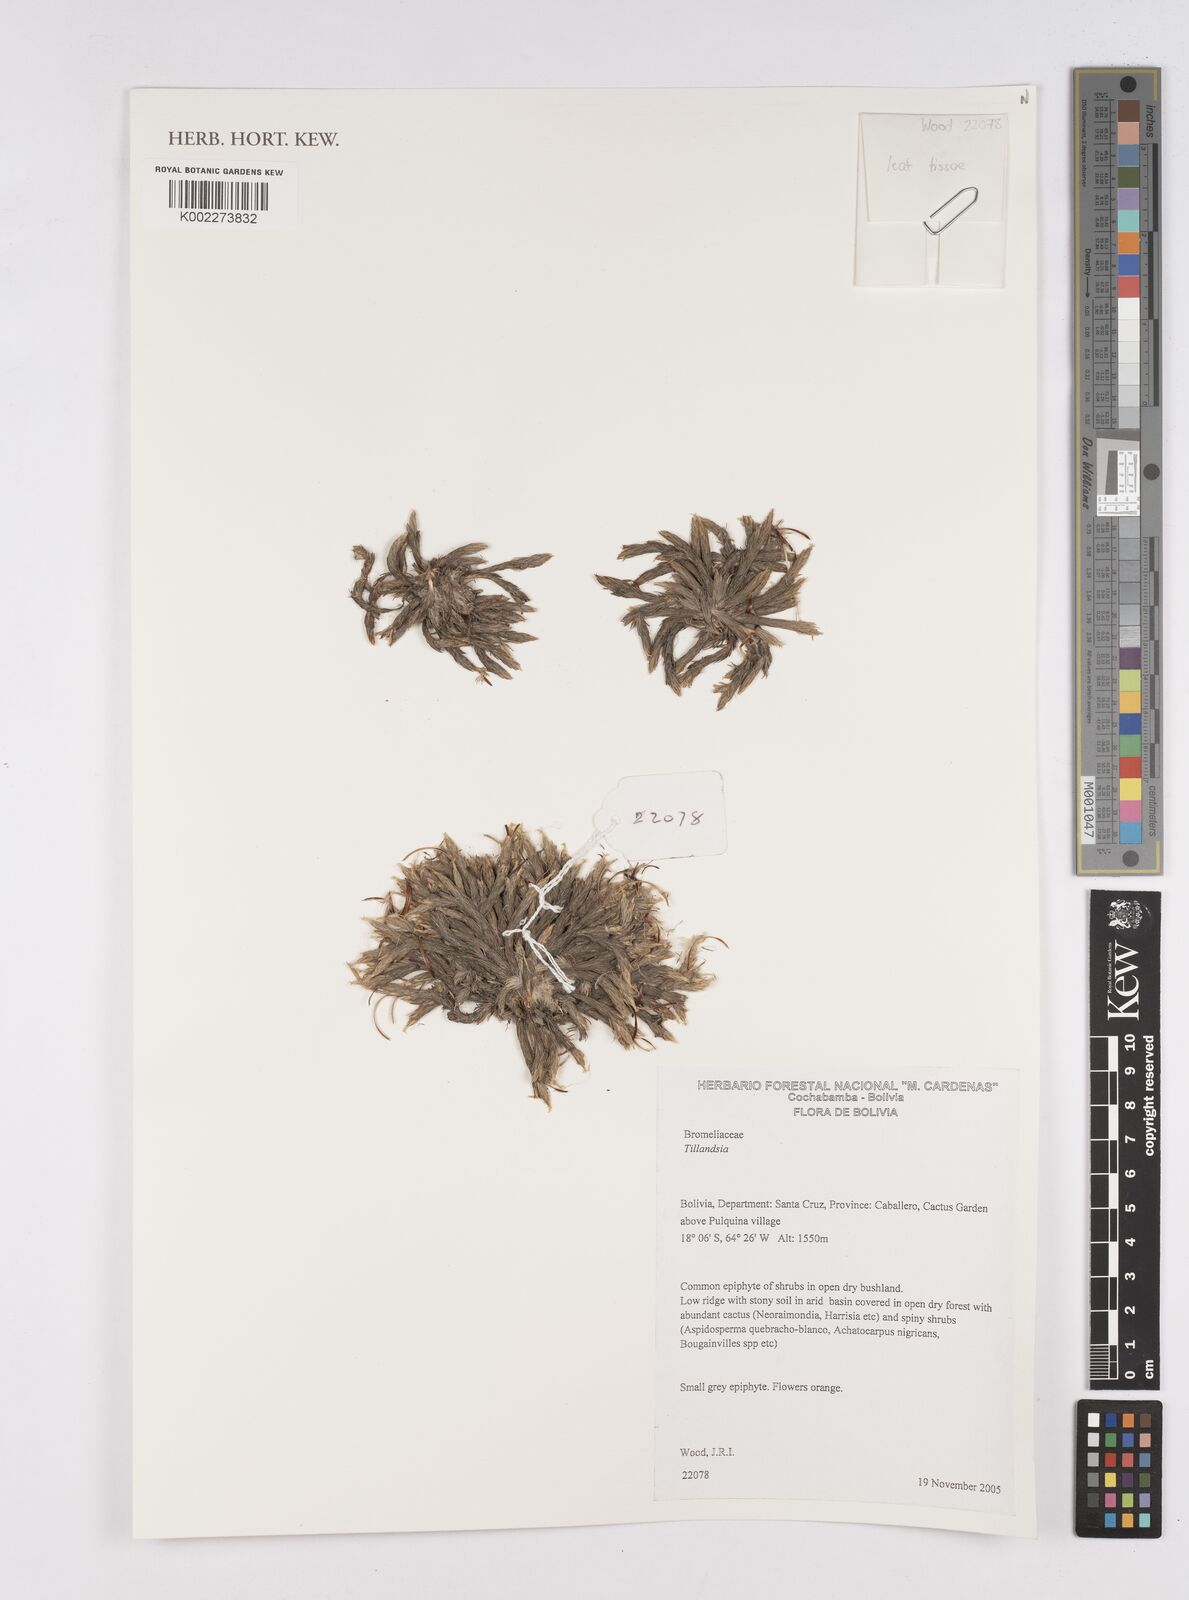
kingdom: Plantae
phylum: Tracheophyta
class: Liliopsida
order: Poales
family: Bromeliaceae
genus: Tillandsia
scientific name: Tillandsia
